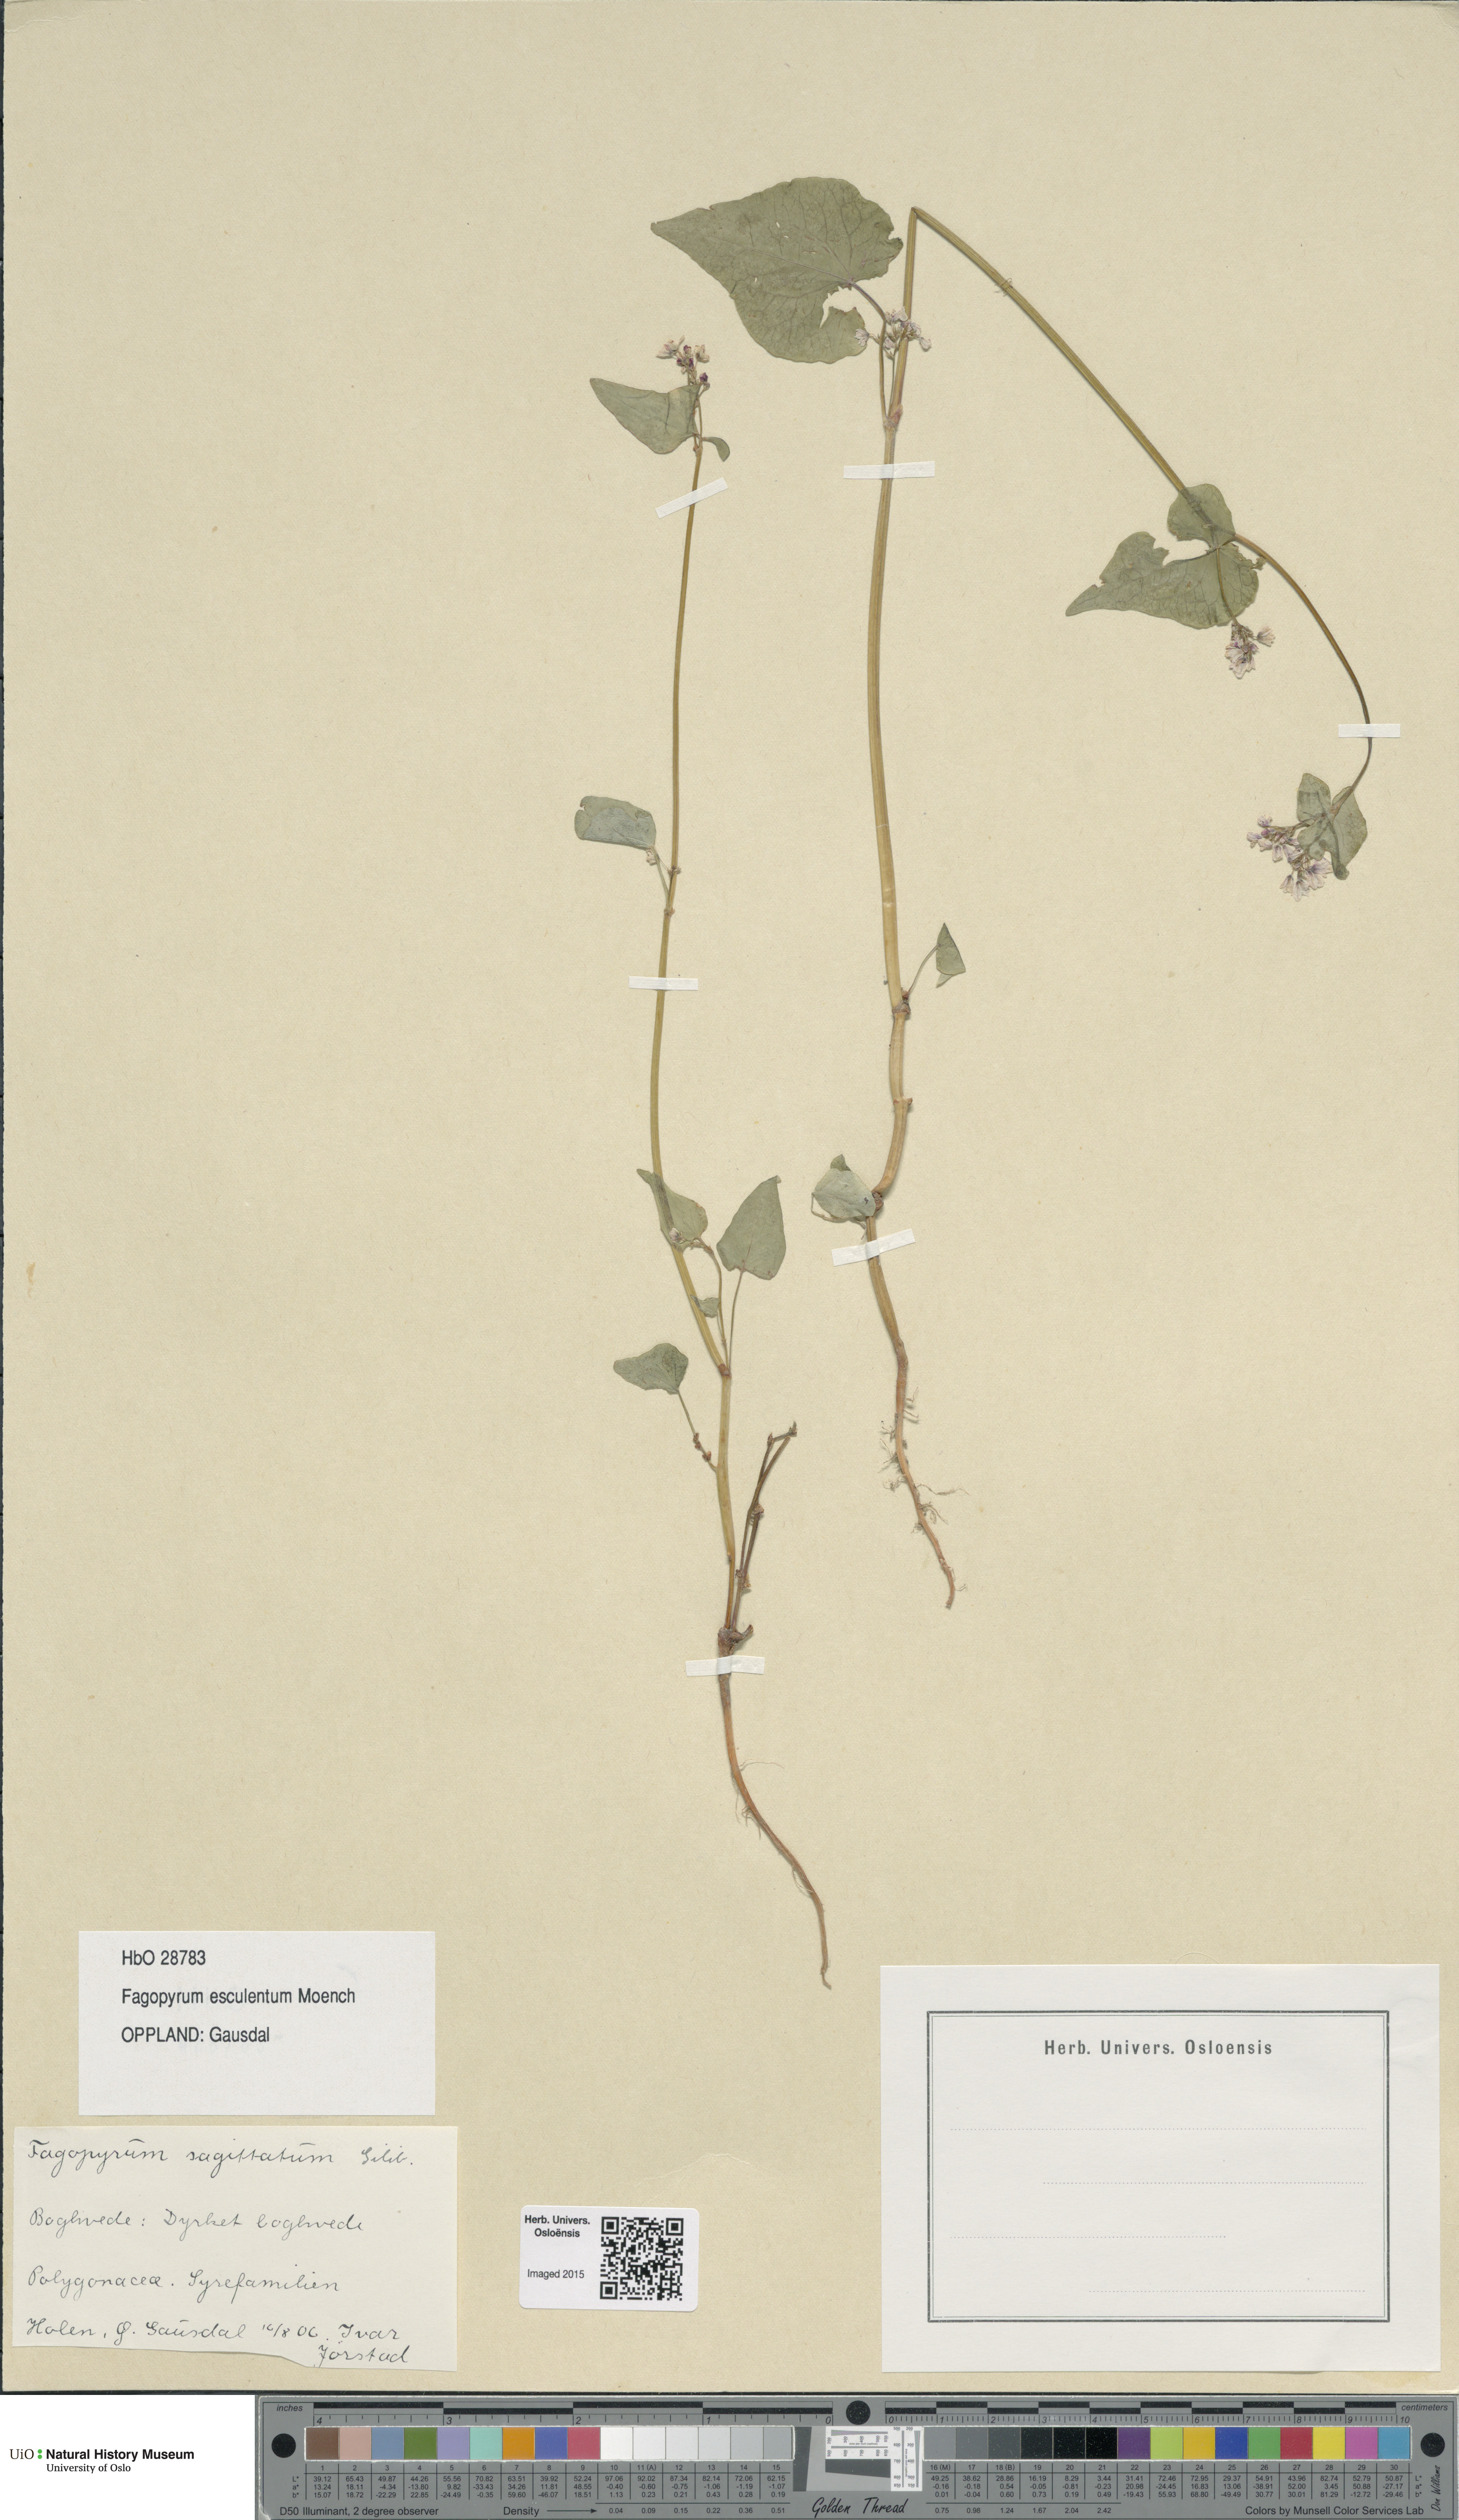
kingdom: Plantae
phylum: Tracheophyta
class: Magnoliopsida
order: Caryophyllales
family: Polygonaceae
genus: Fagopyrum
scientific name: Fagopyrum esculentum
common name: Buckwheat
